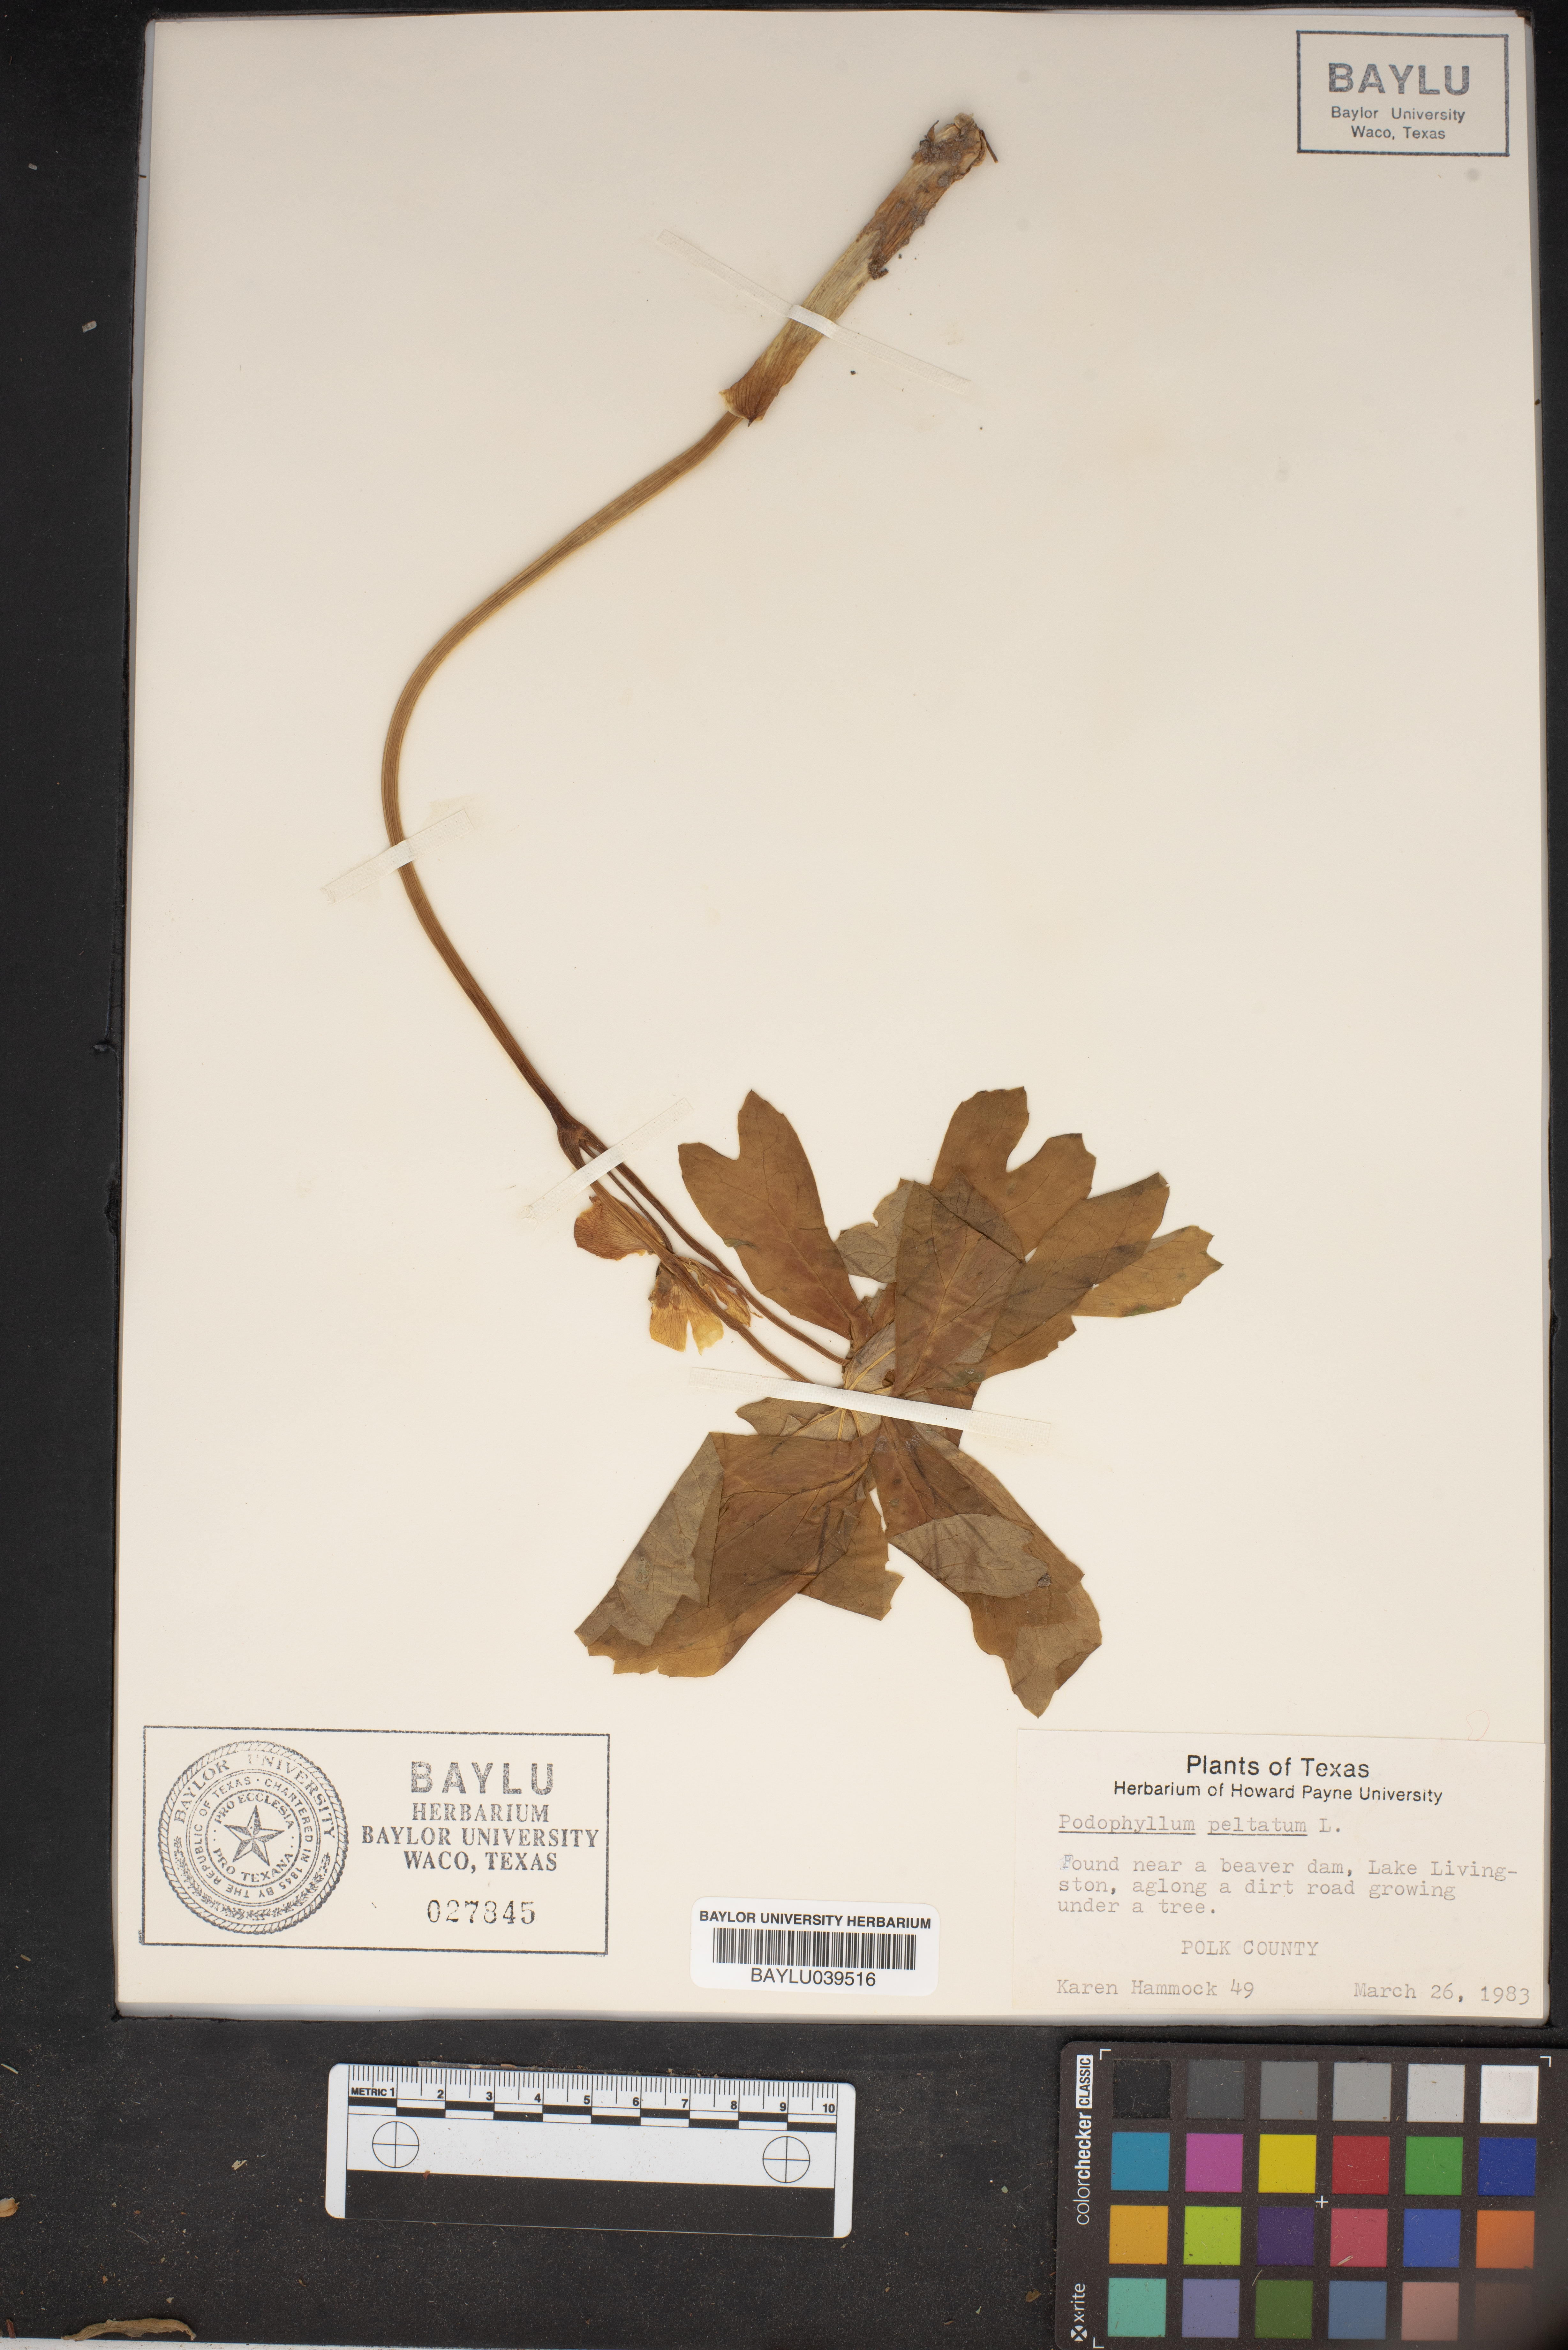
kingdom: Plantae
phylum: Tracheophyta
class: Magnoliopsida
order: Ranunculales
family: Berberidaceae
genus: Podophyllum
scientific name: Podophyllum peltatum
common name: Wild mandrake
